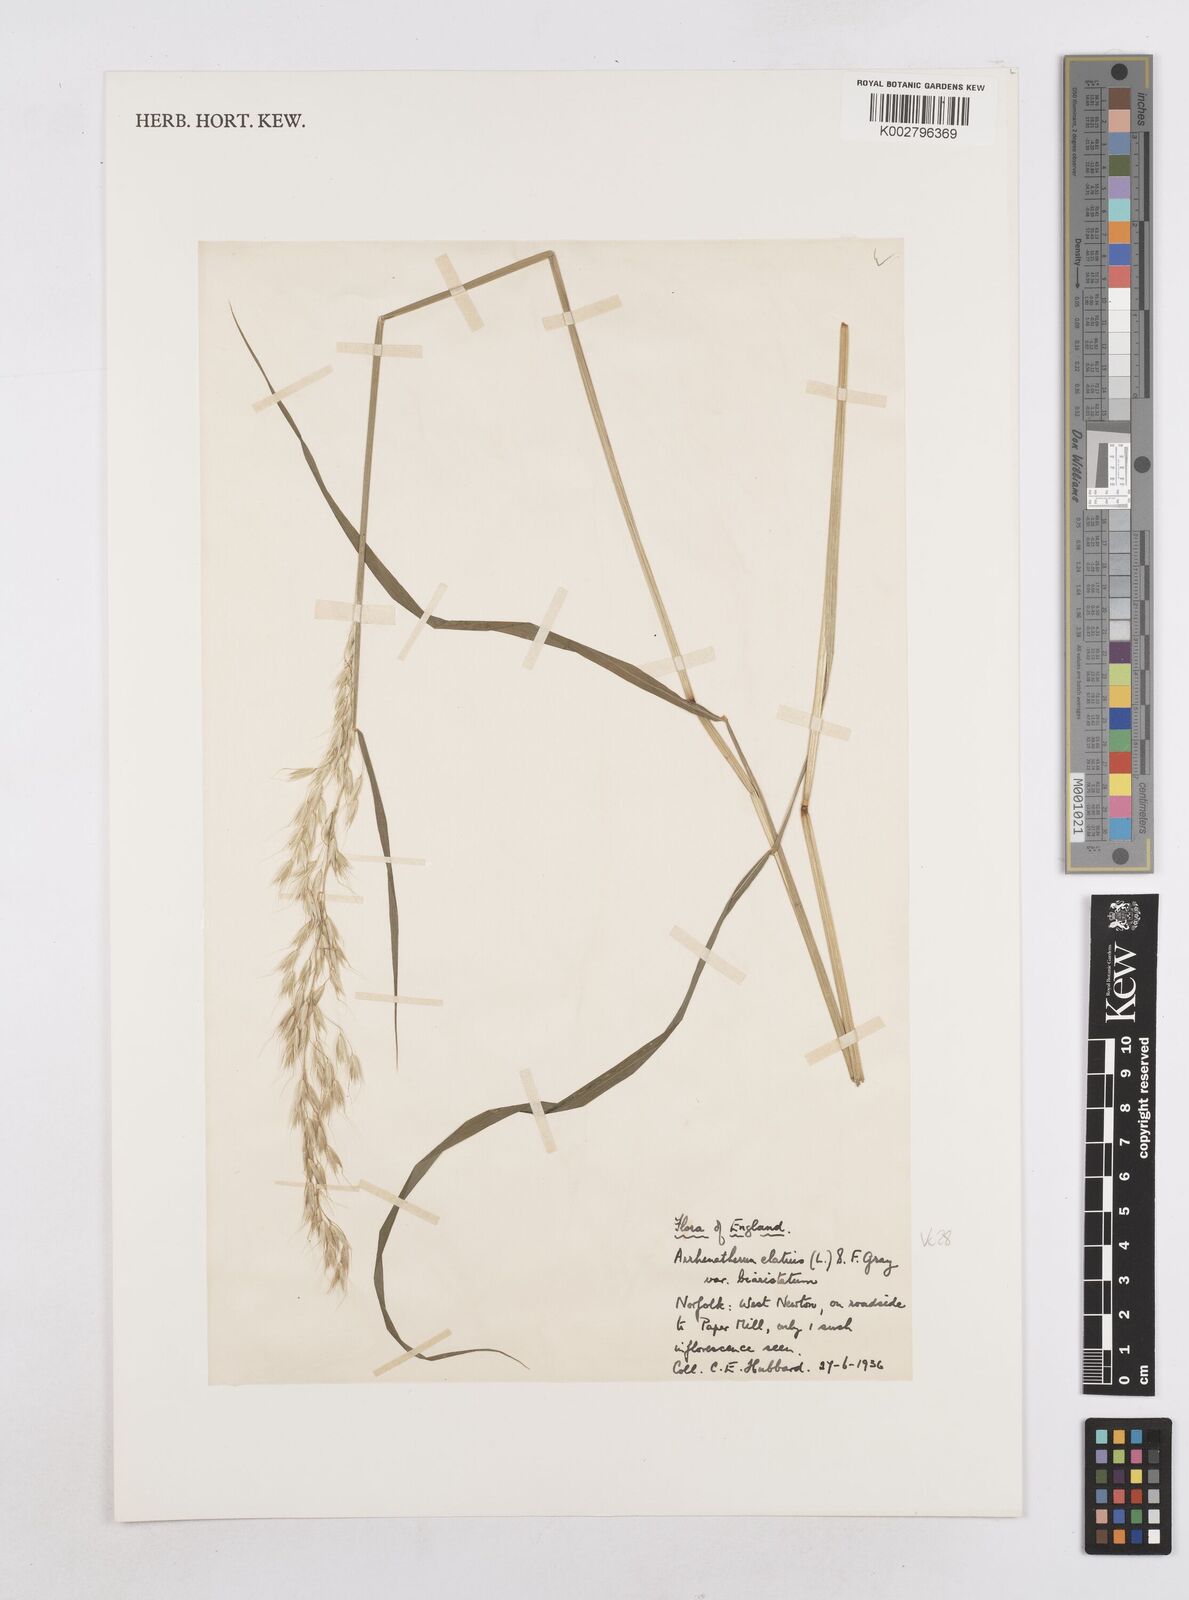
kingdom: Plantae
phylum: Tracheophyta
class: Liliopsida
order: Poales
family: Poaceae
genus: Arrhenatherum
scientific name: Arrhenatherum elatius
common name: Tall oatgrass
